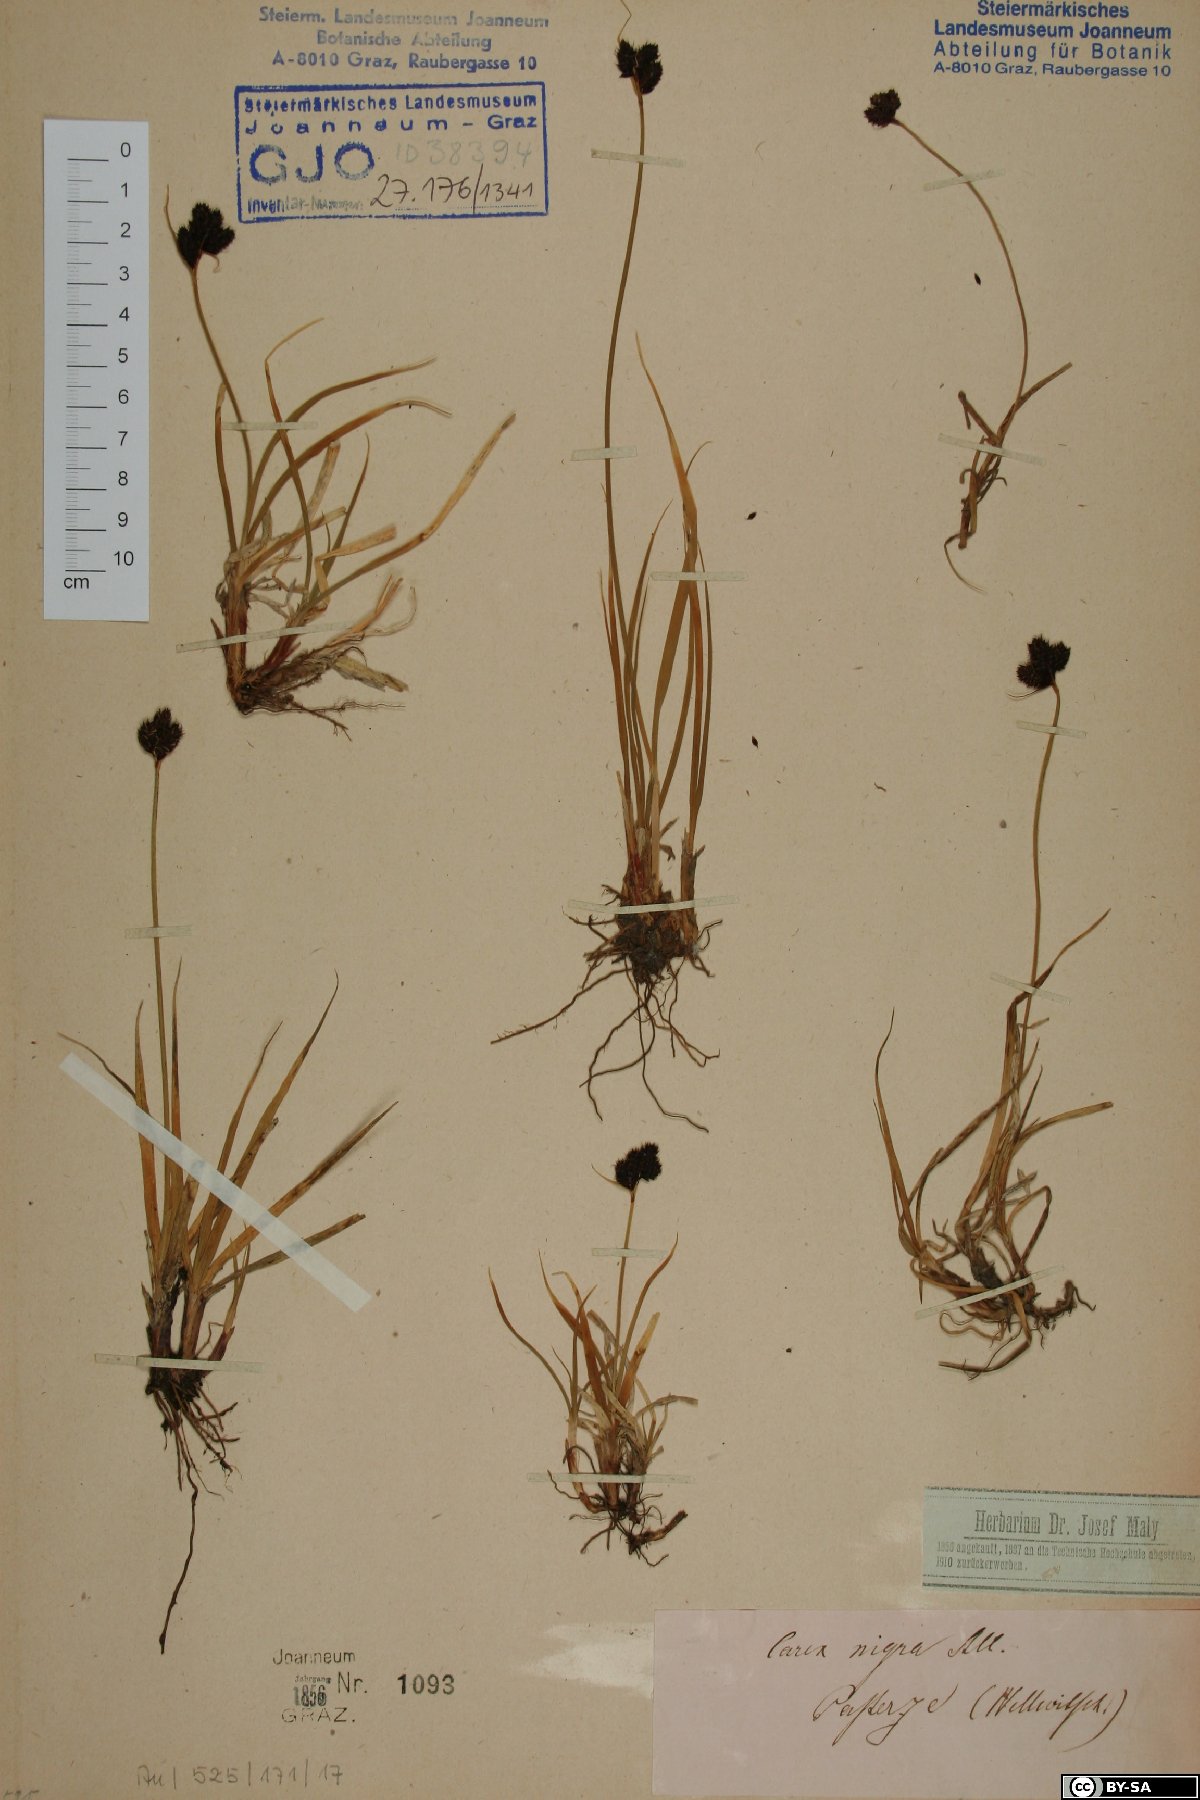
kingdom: Plantae
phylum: Tracheophyta
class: Liliopsida
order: Poales
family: Cyperaceae
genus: Carex
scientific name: Carex nigra
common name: Common sedge
